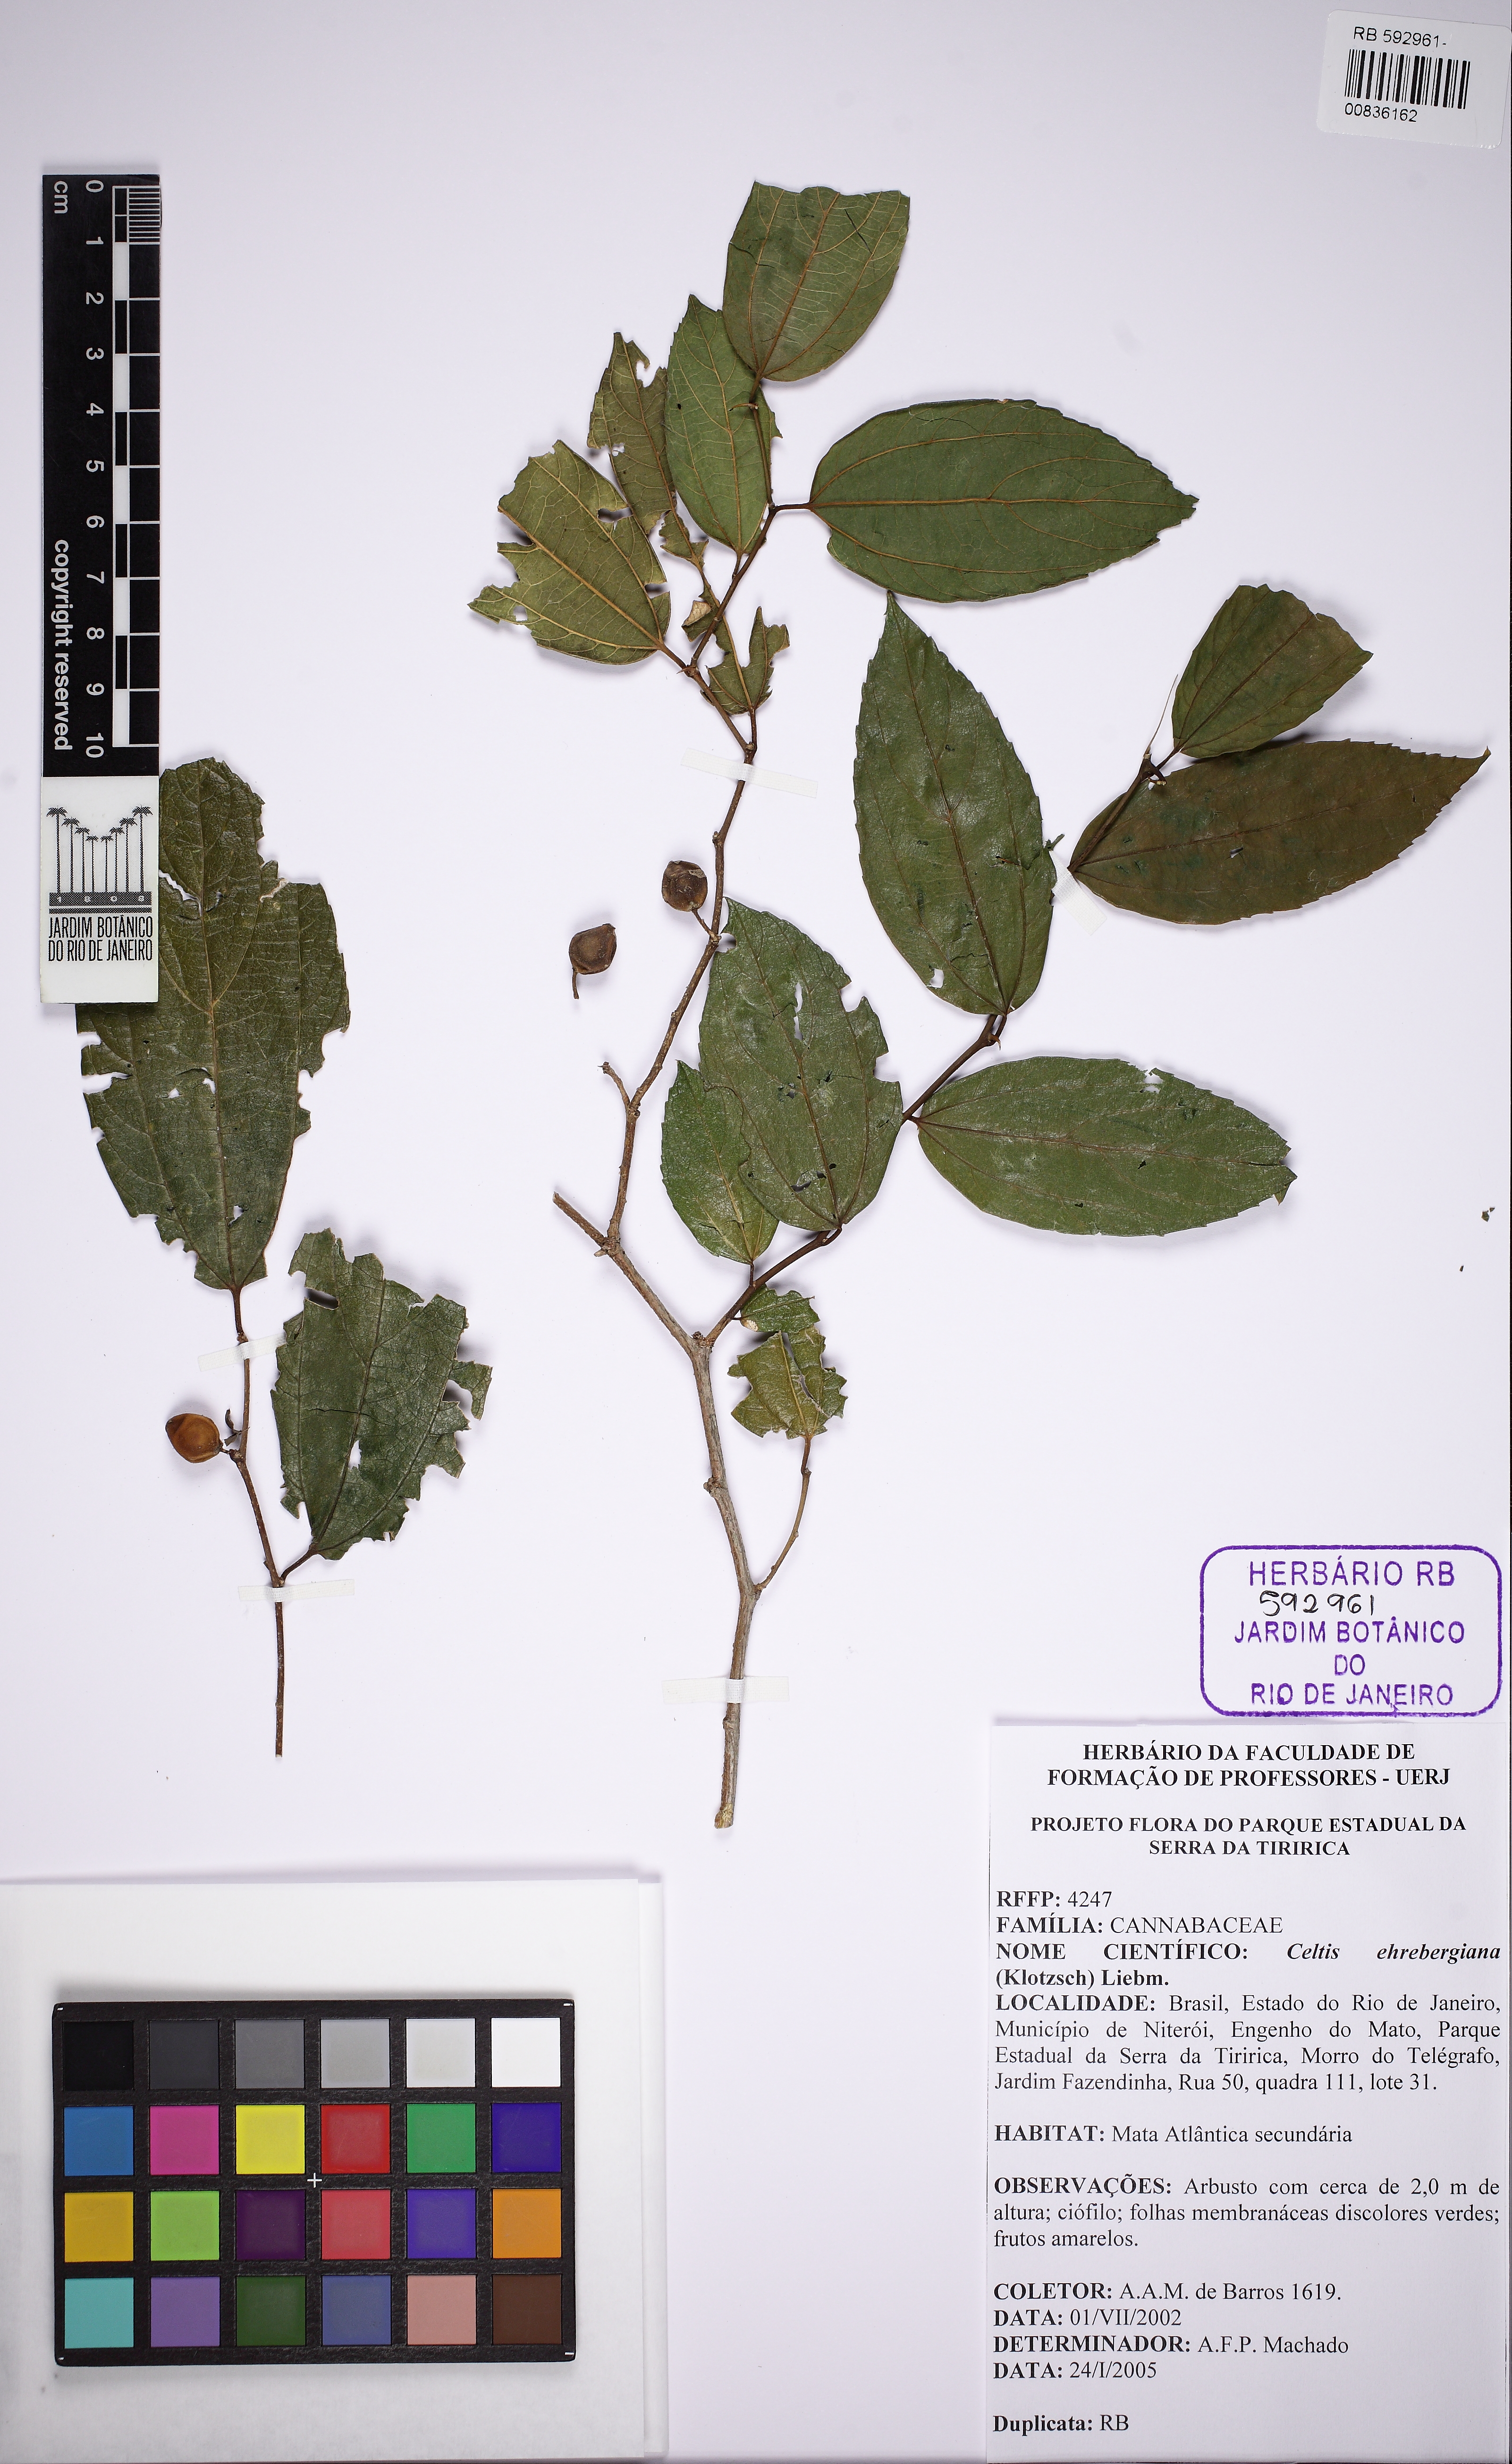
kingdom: Plantae
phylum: Tracheophyta
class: Magnoliopsida
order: Rosales
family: Cannabaceae
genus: Celtis
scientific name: Celtis iguanaea
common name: Iguana hackberry
